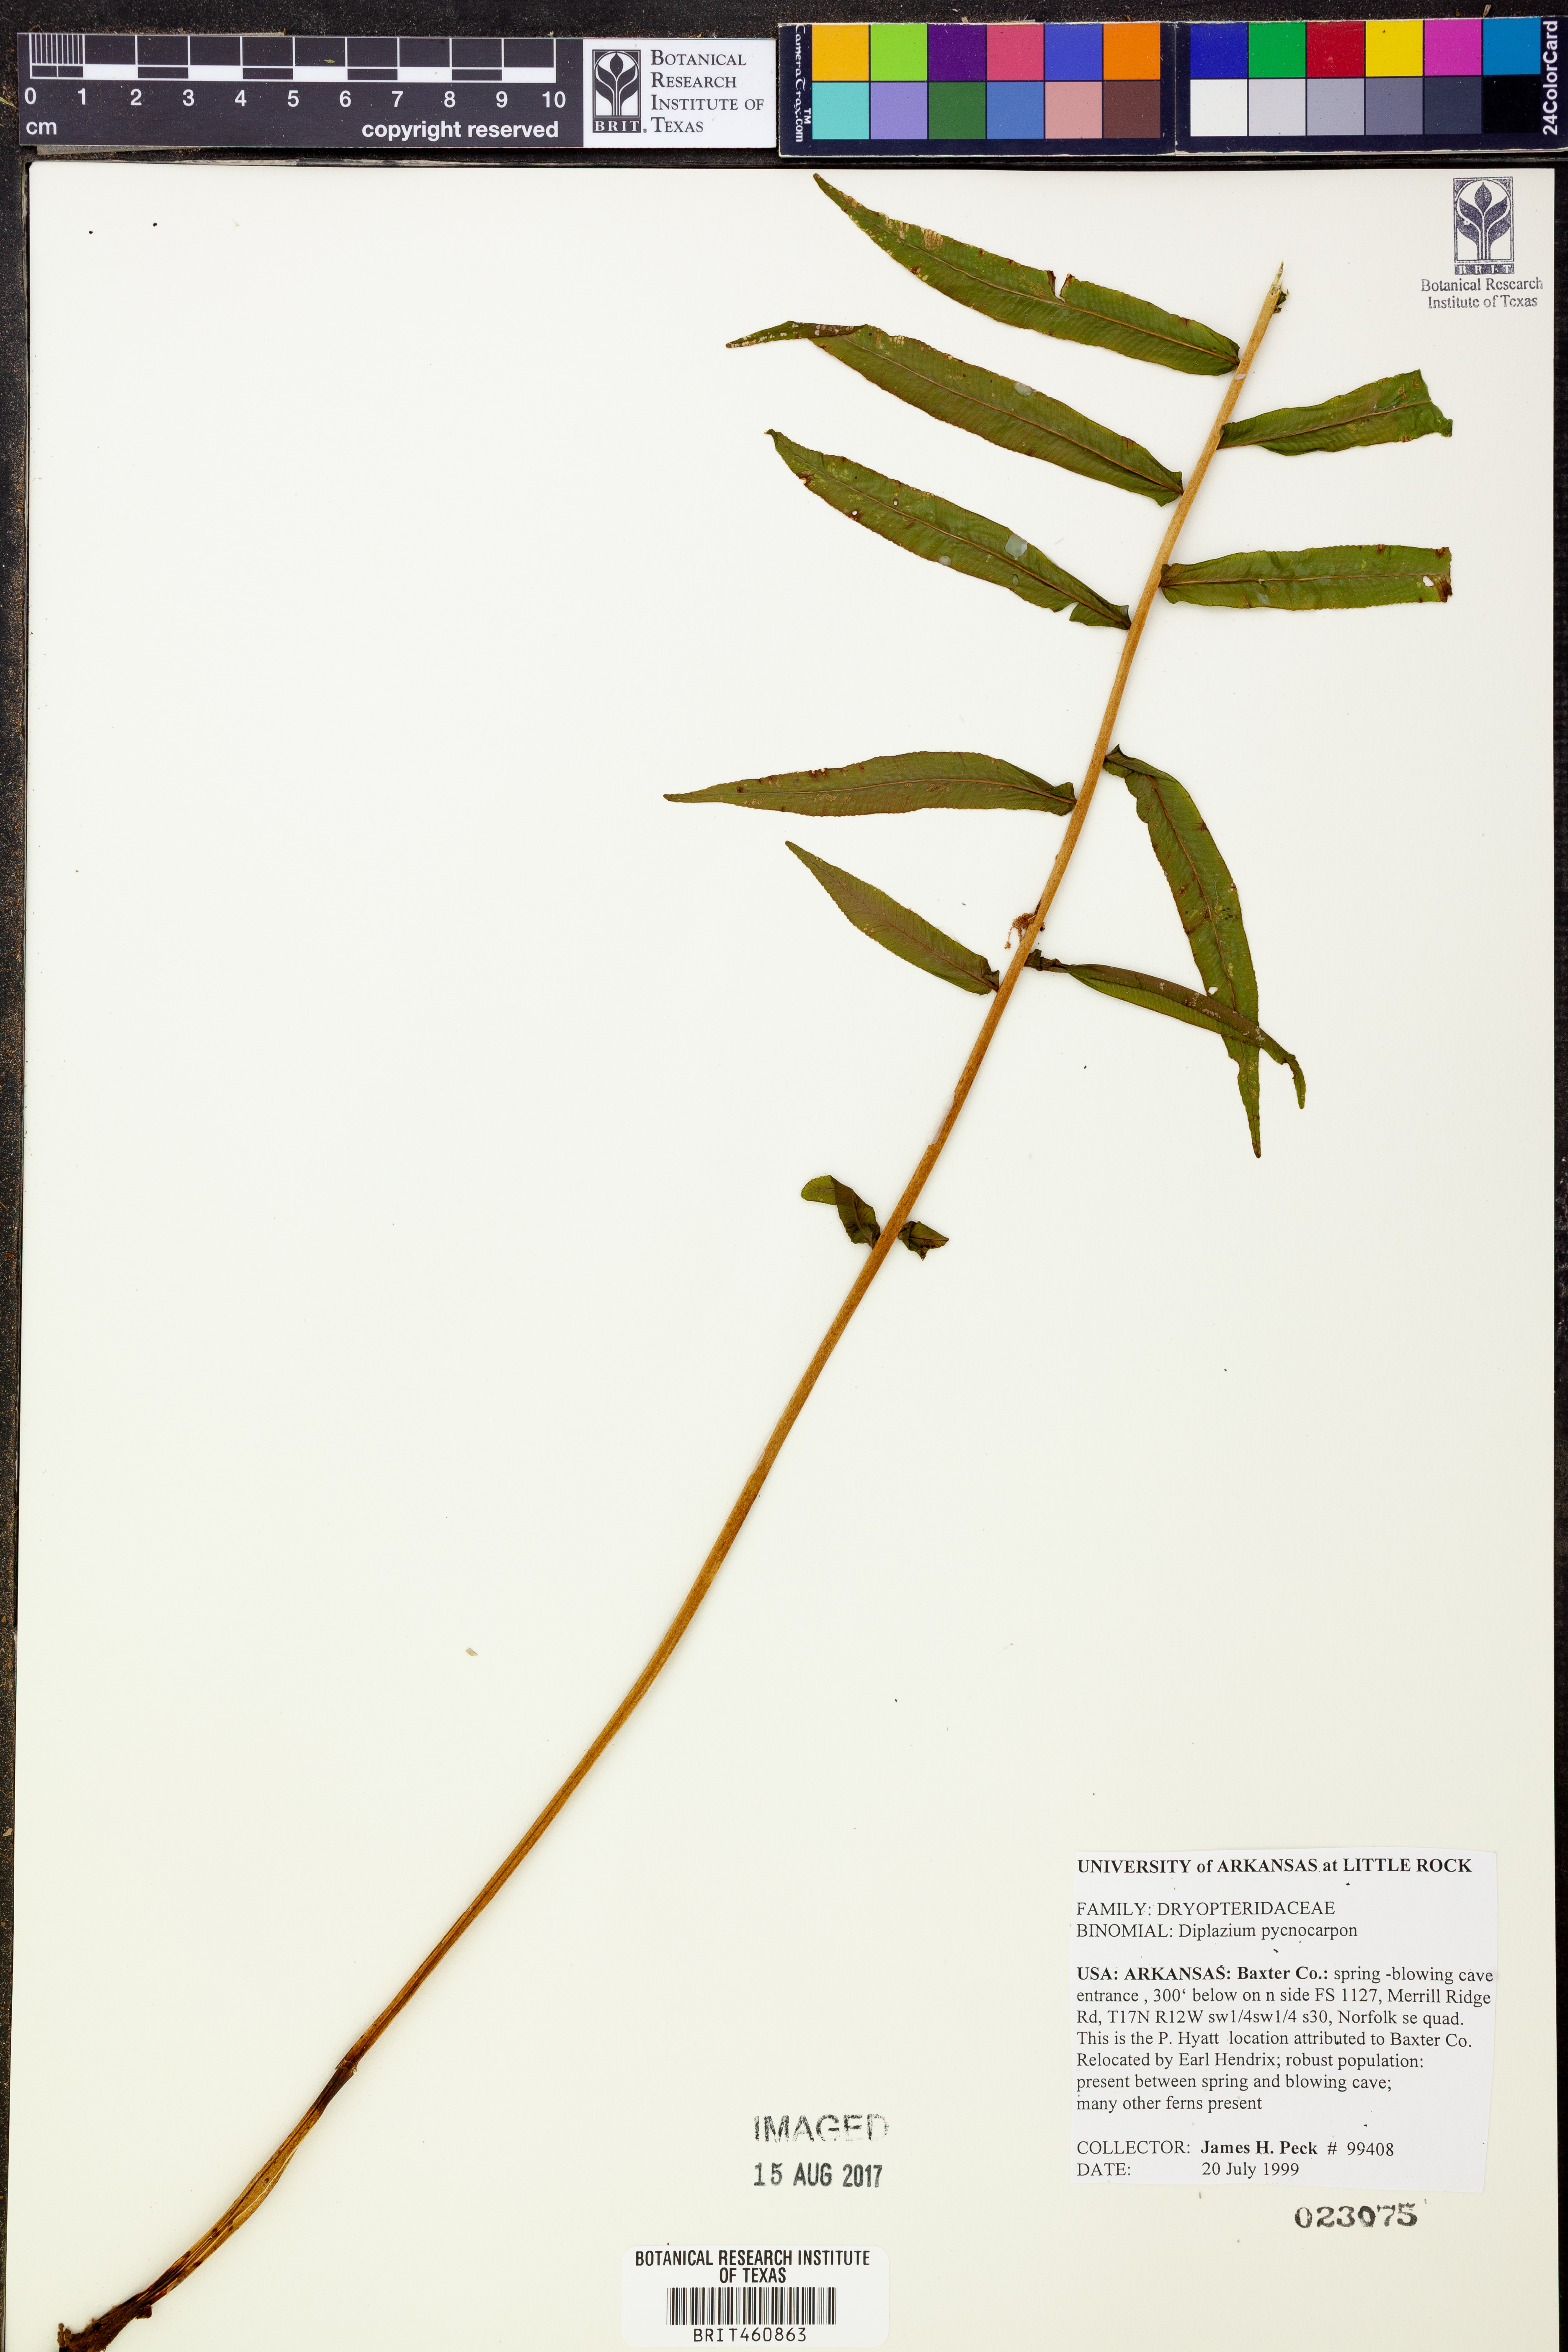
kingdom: Plantae
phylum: Tracheophyta
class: Polypodiopsida
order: Polypodiales
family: Diplaziopsidaceae
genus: Homalosorus
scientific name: Homalosorus pycnocarpos
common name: Glade fern
